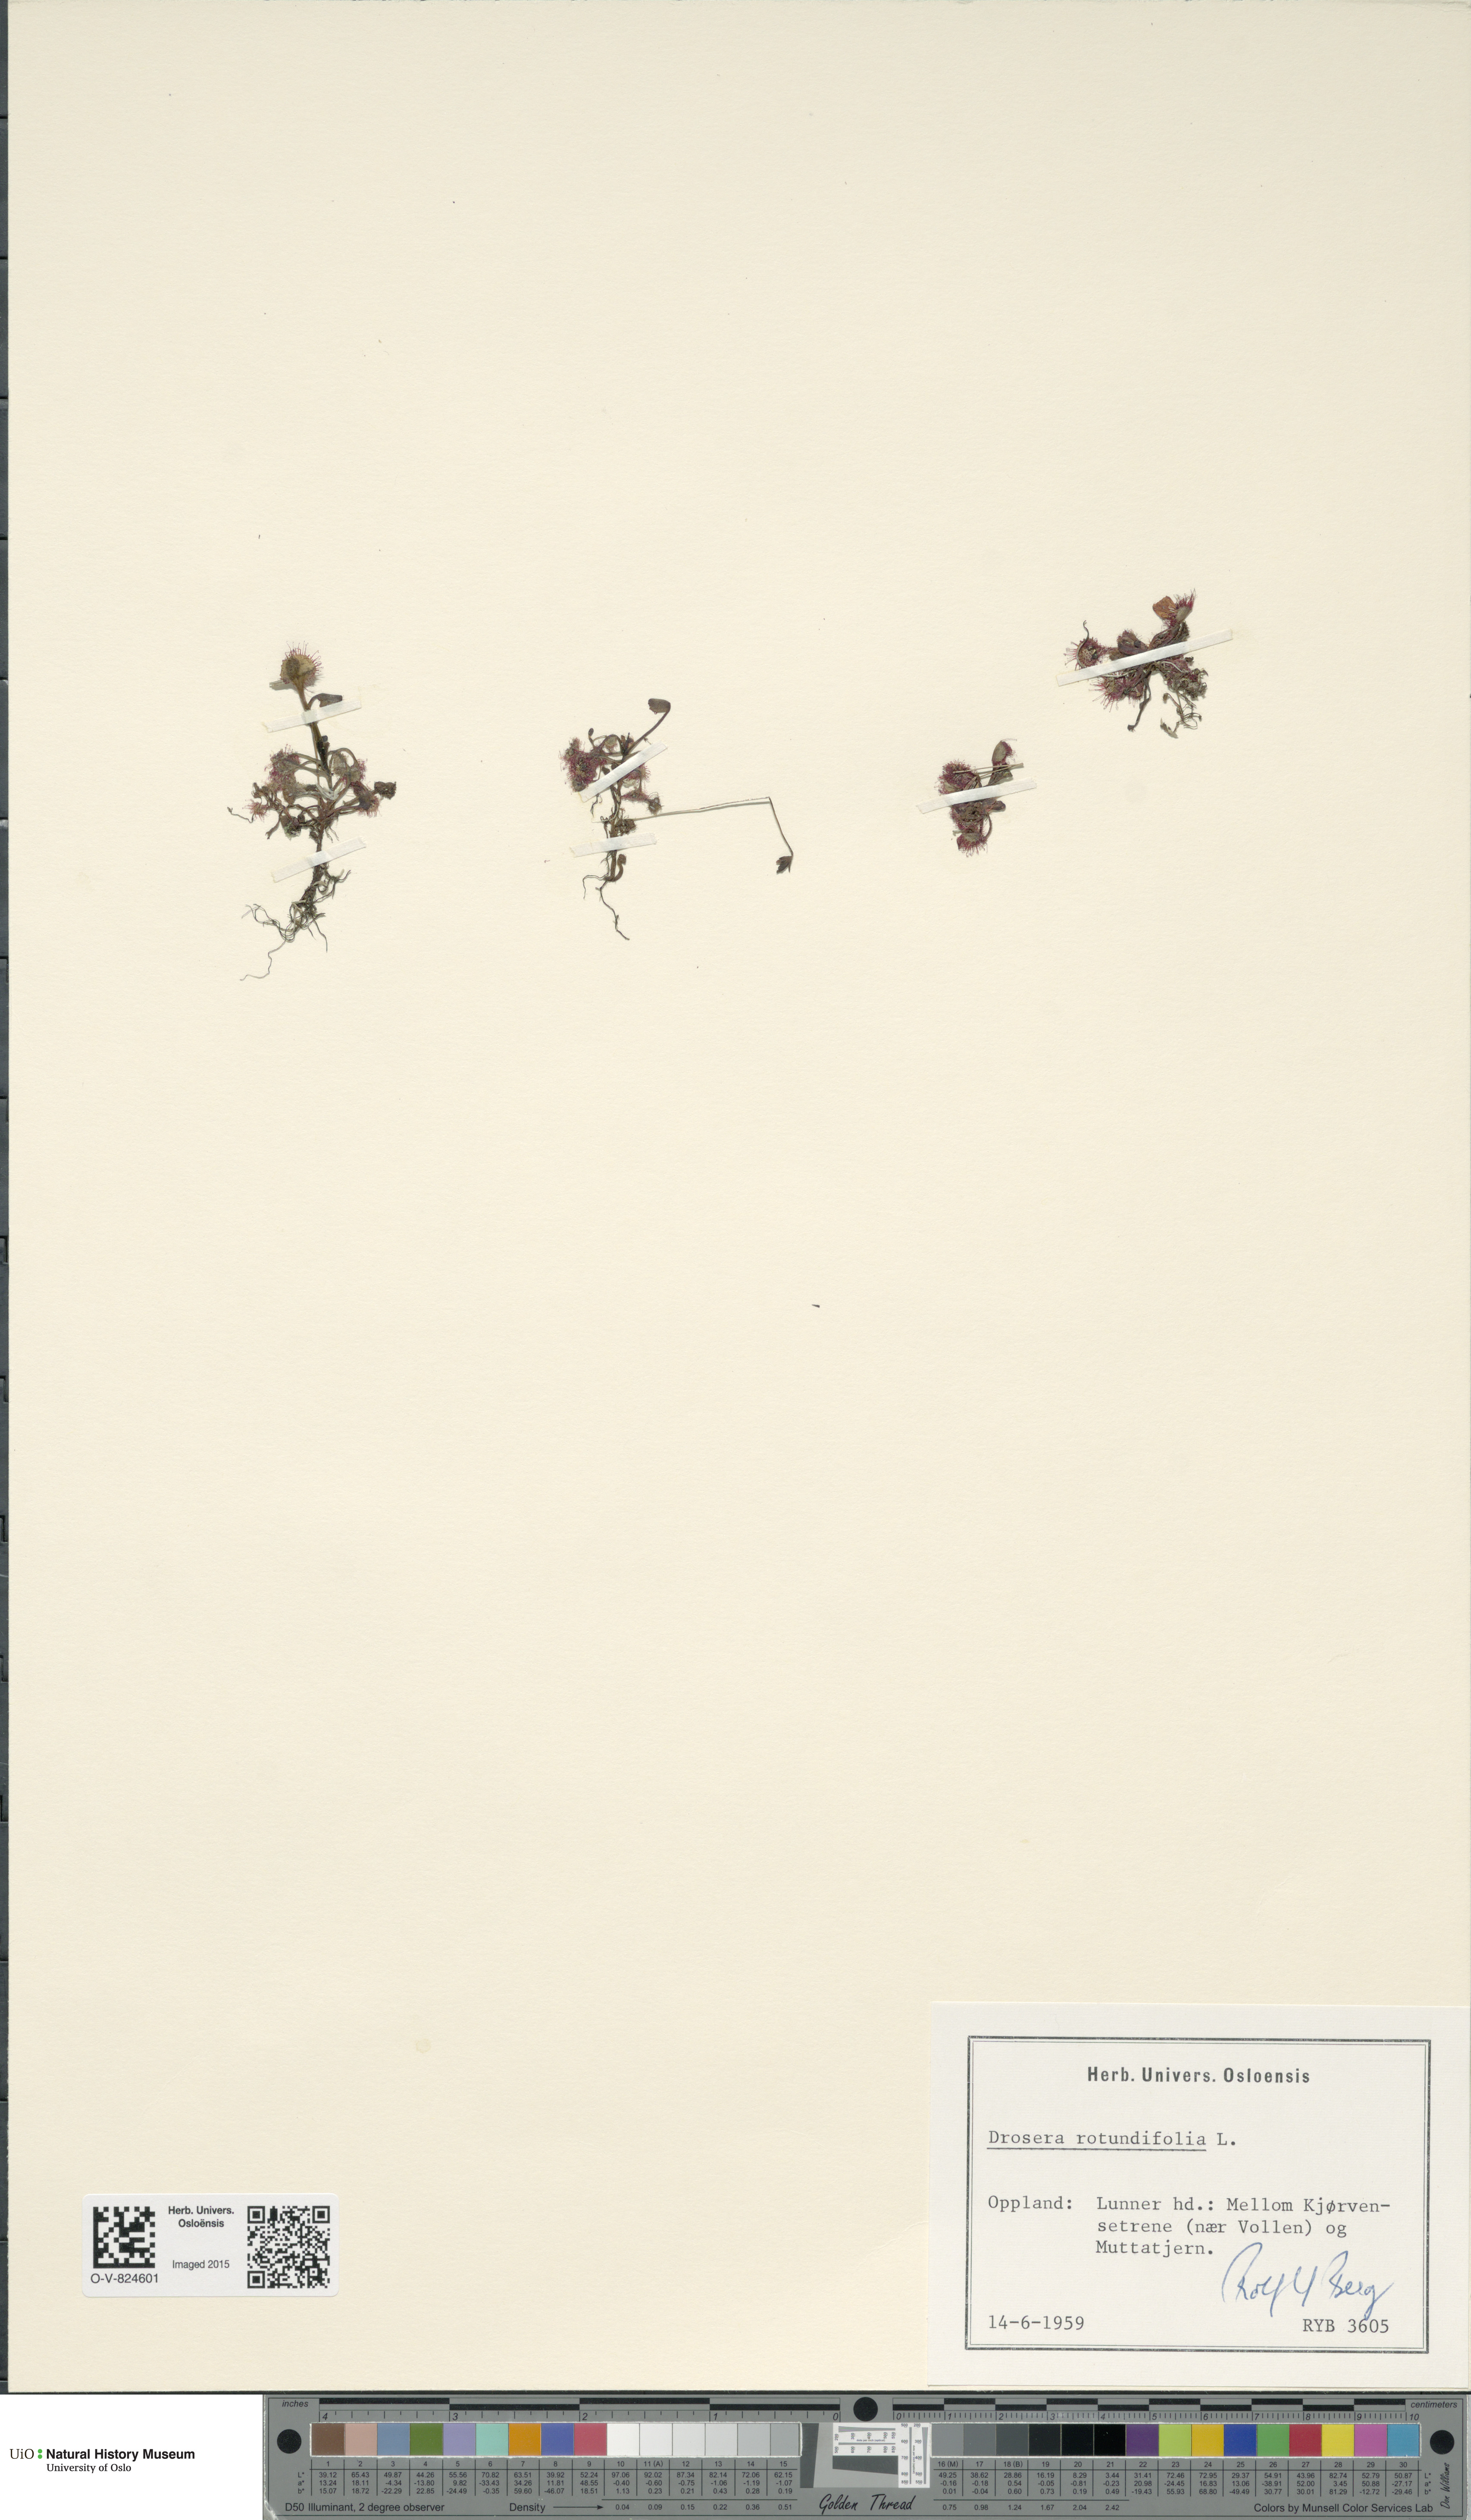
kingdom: Plantae
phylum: Tracheophyta
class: Magnoliopsida
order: Caryophyllales
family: Droseraceae
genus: Drosera
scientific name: Drosera rotundifolia
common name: Round-leaved sundew
